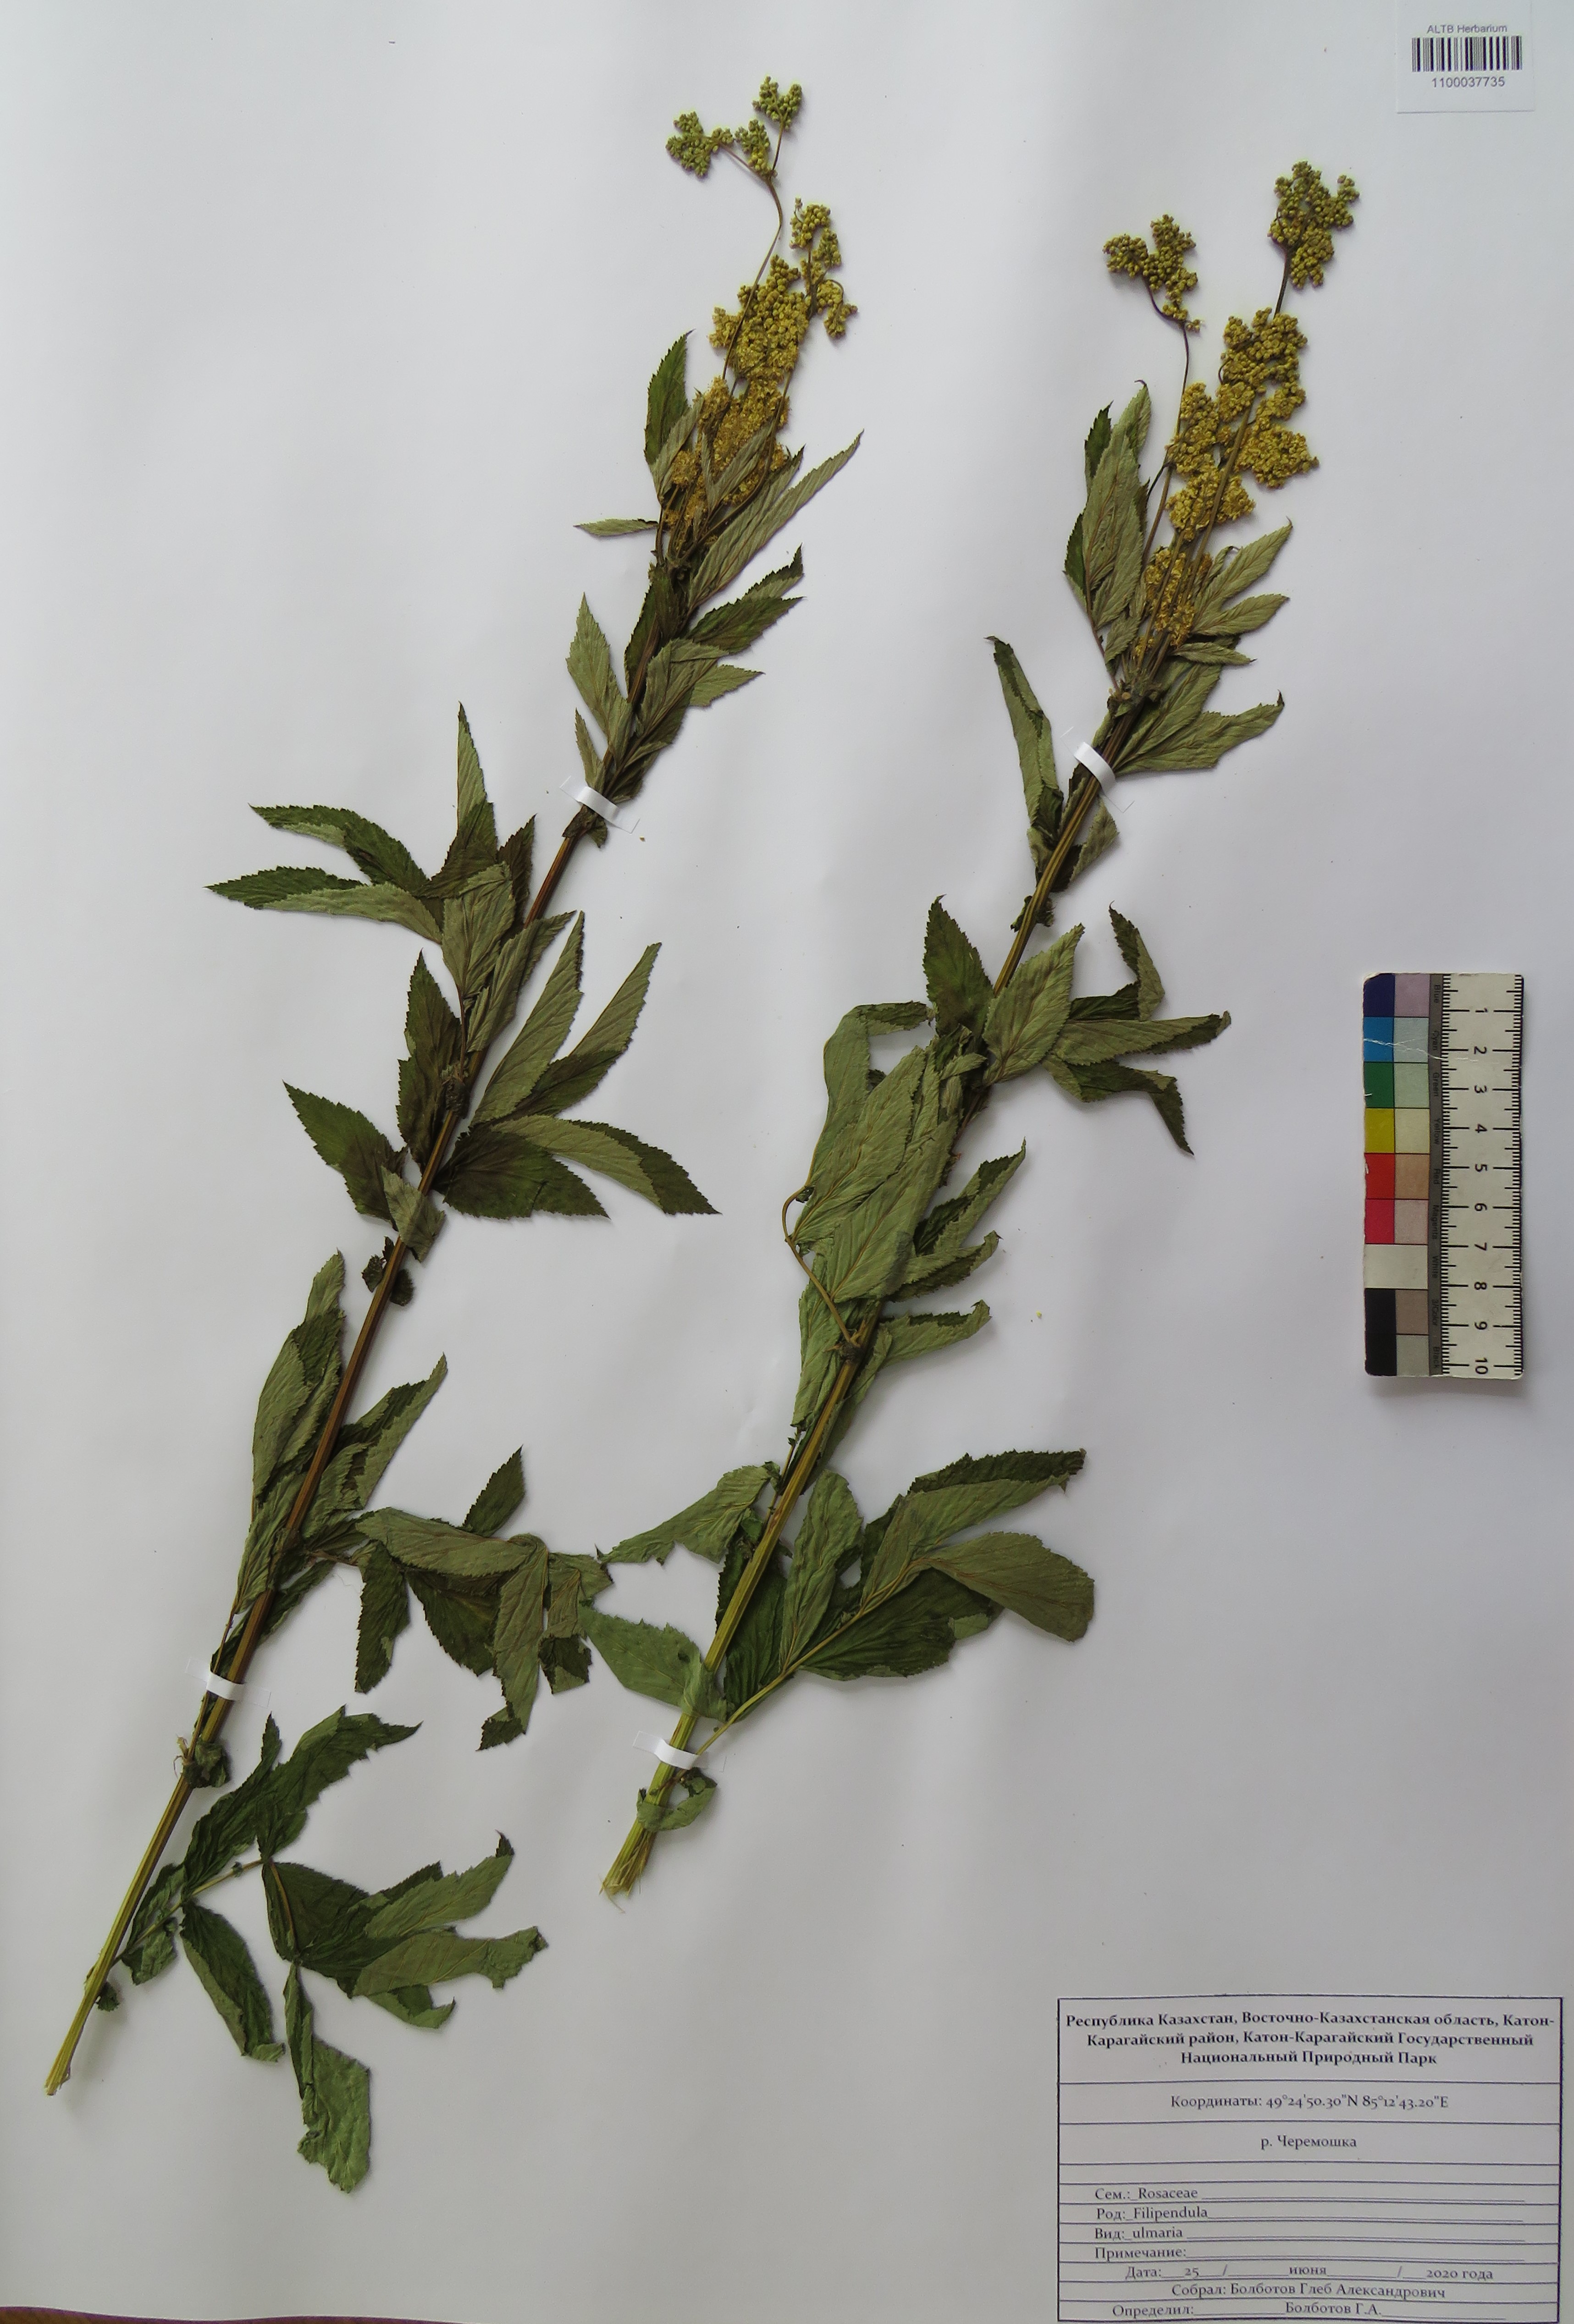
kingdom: Plantae
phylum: Tracheophyta
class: Magnoliopsida
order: Rosales
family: Rosaceae
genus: Filipendula
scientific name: Filipendula ulmaria
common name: Meadowsweet
